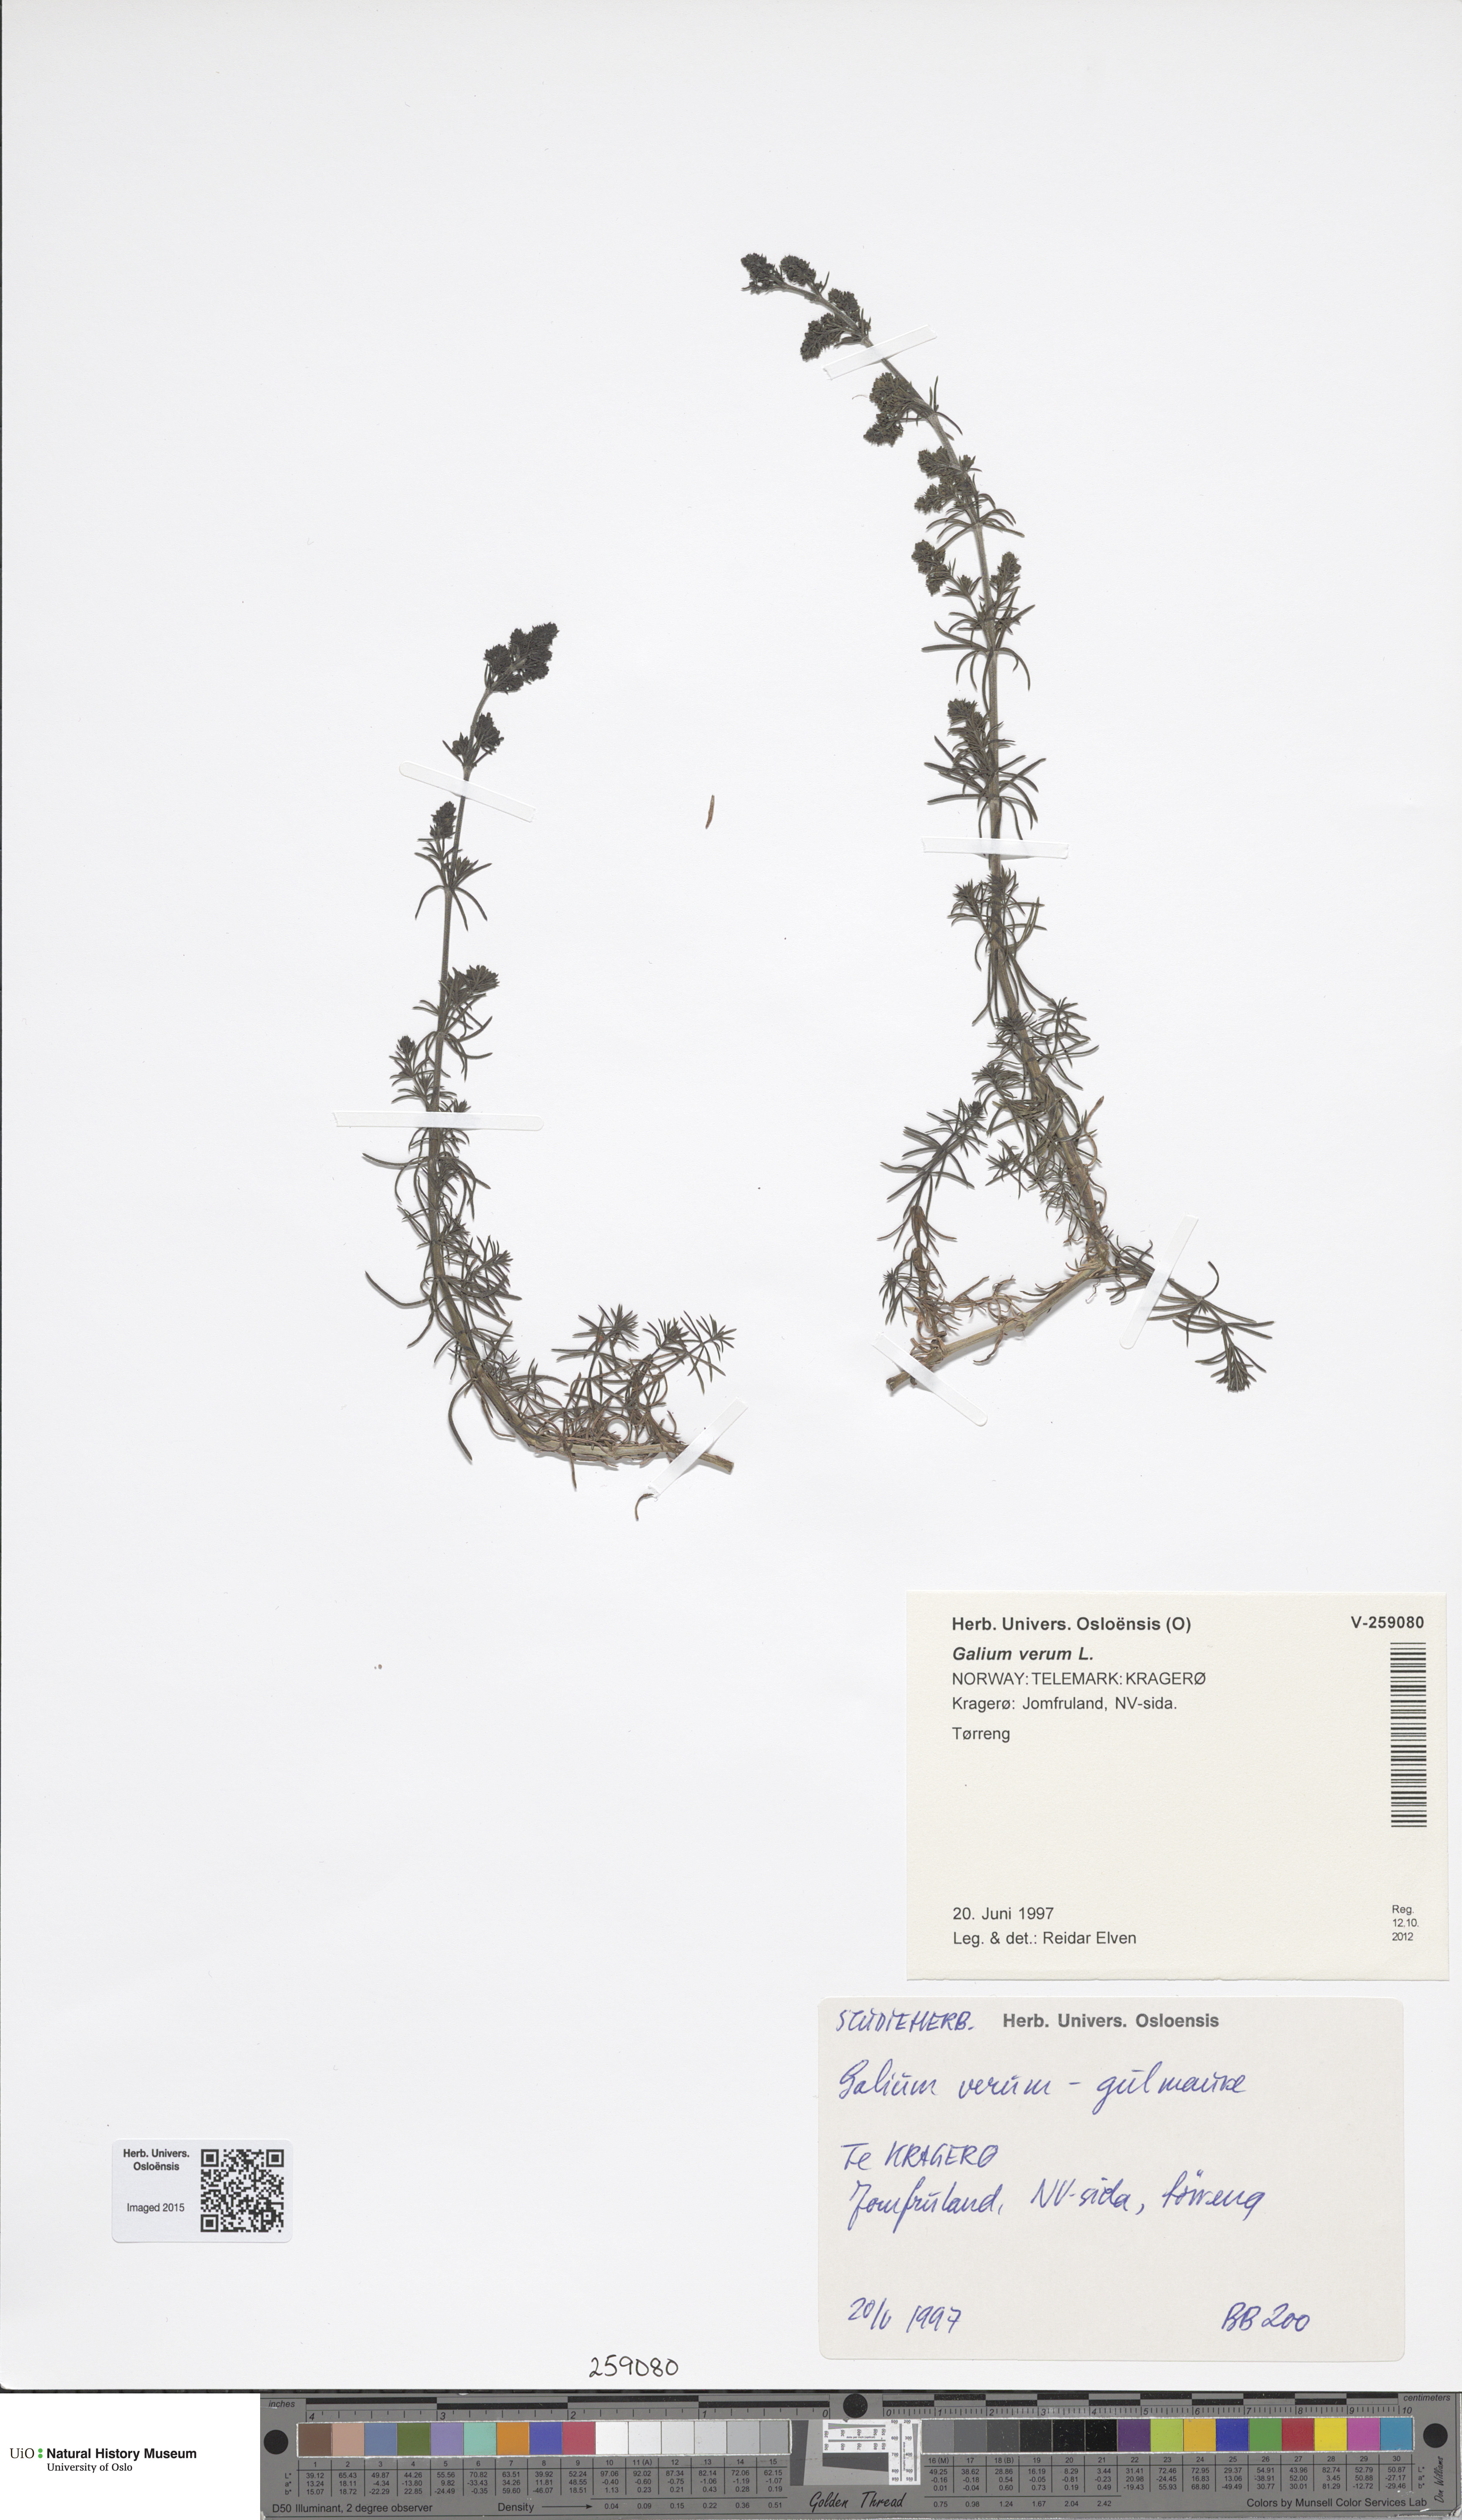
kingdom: Plantae
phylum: Tracheophyta
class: Magnoliopsida
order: Gentianales
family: Rubiaceae
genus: Galium
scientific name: Galium verum
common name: Lady's bedstraw
